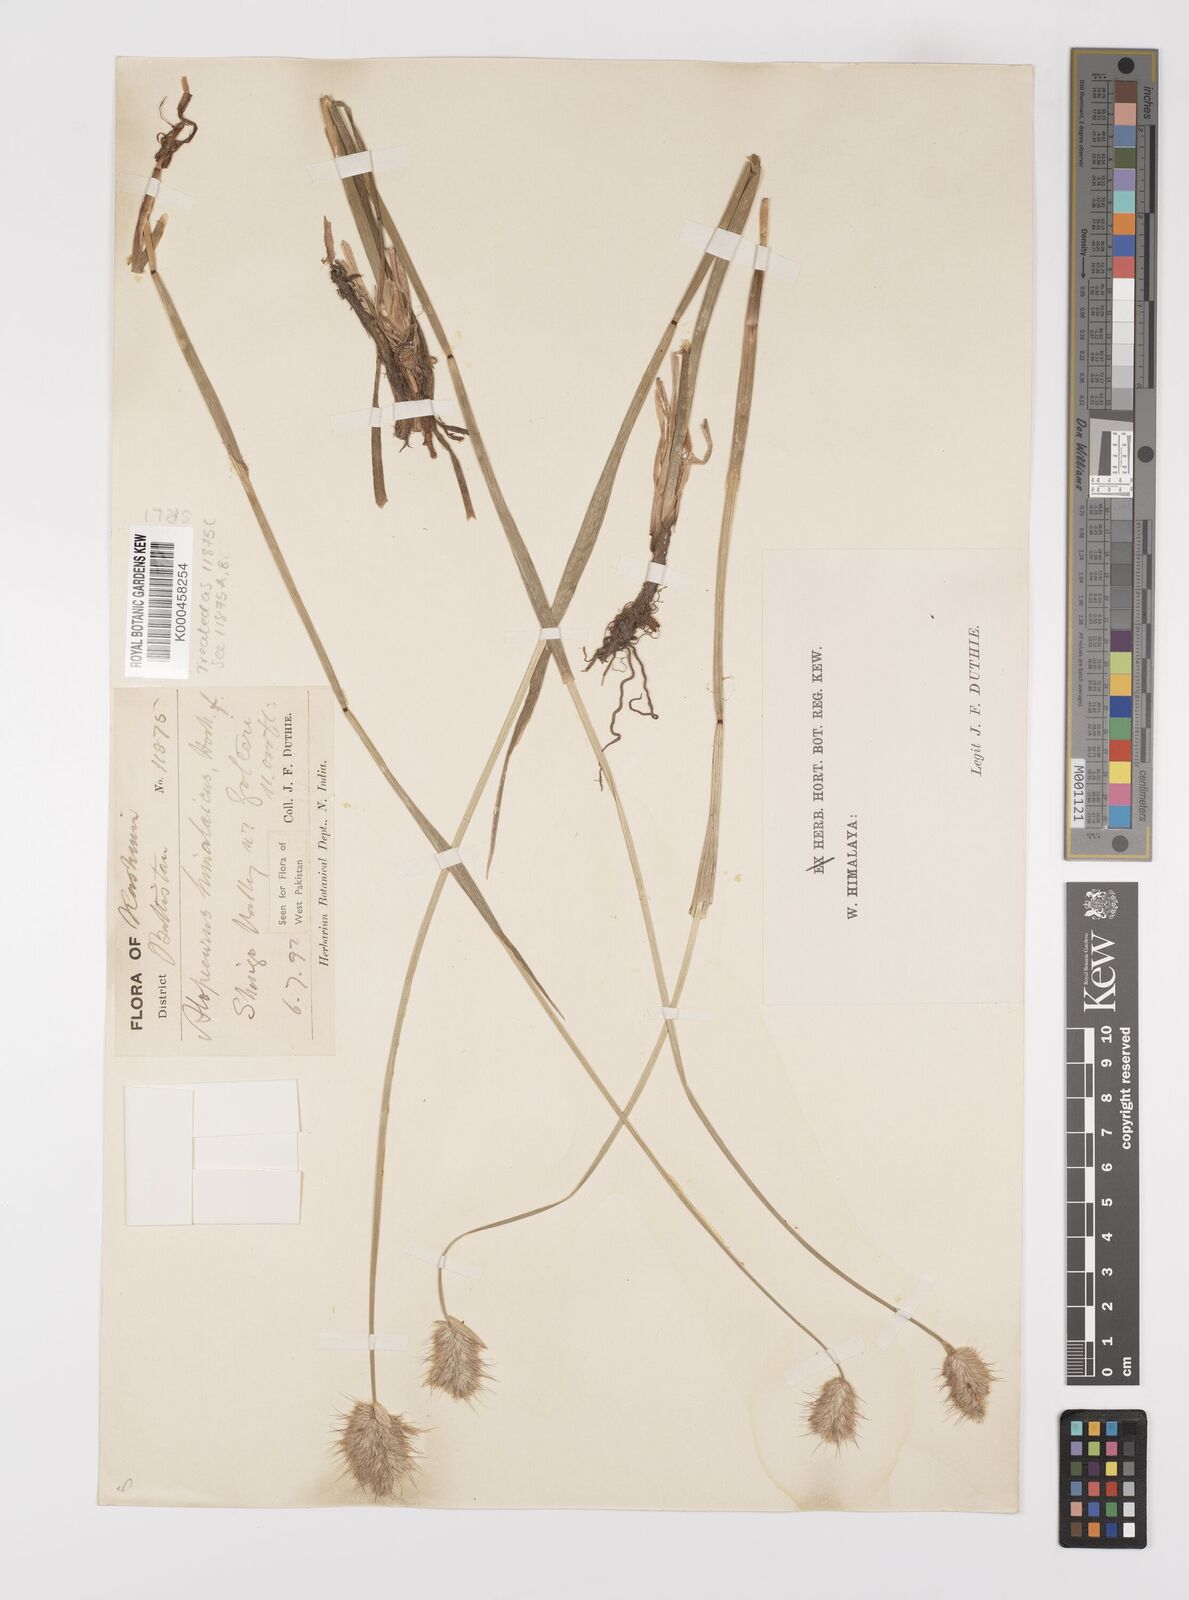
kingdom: Plantae
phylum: Tracheophyta
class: Liliopsida
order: Poales
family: Poaceae
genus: Alopecurus
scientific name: Alopecurus himalaicus
